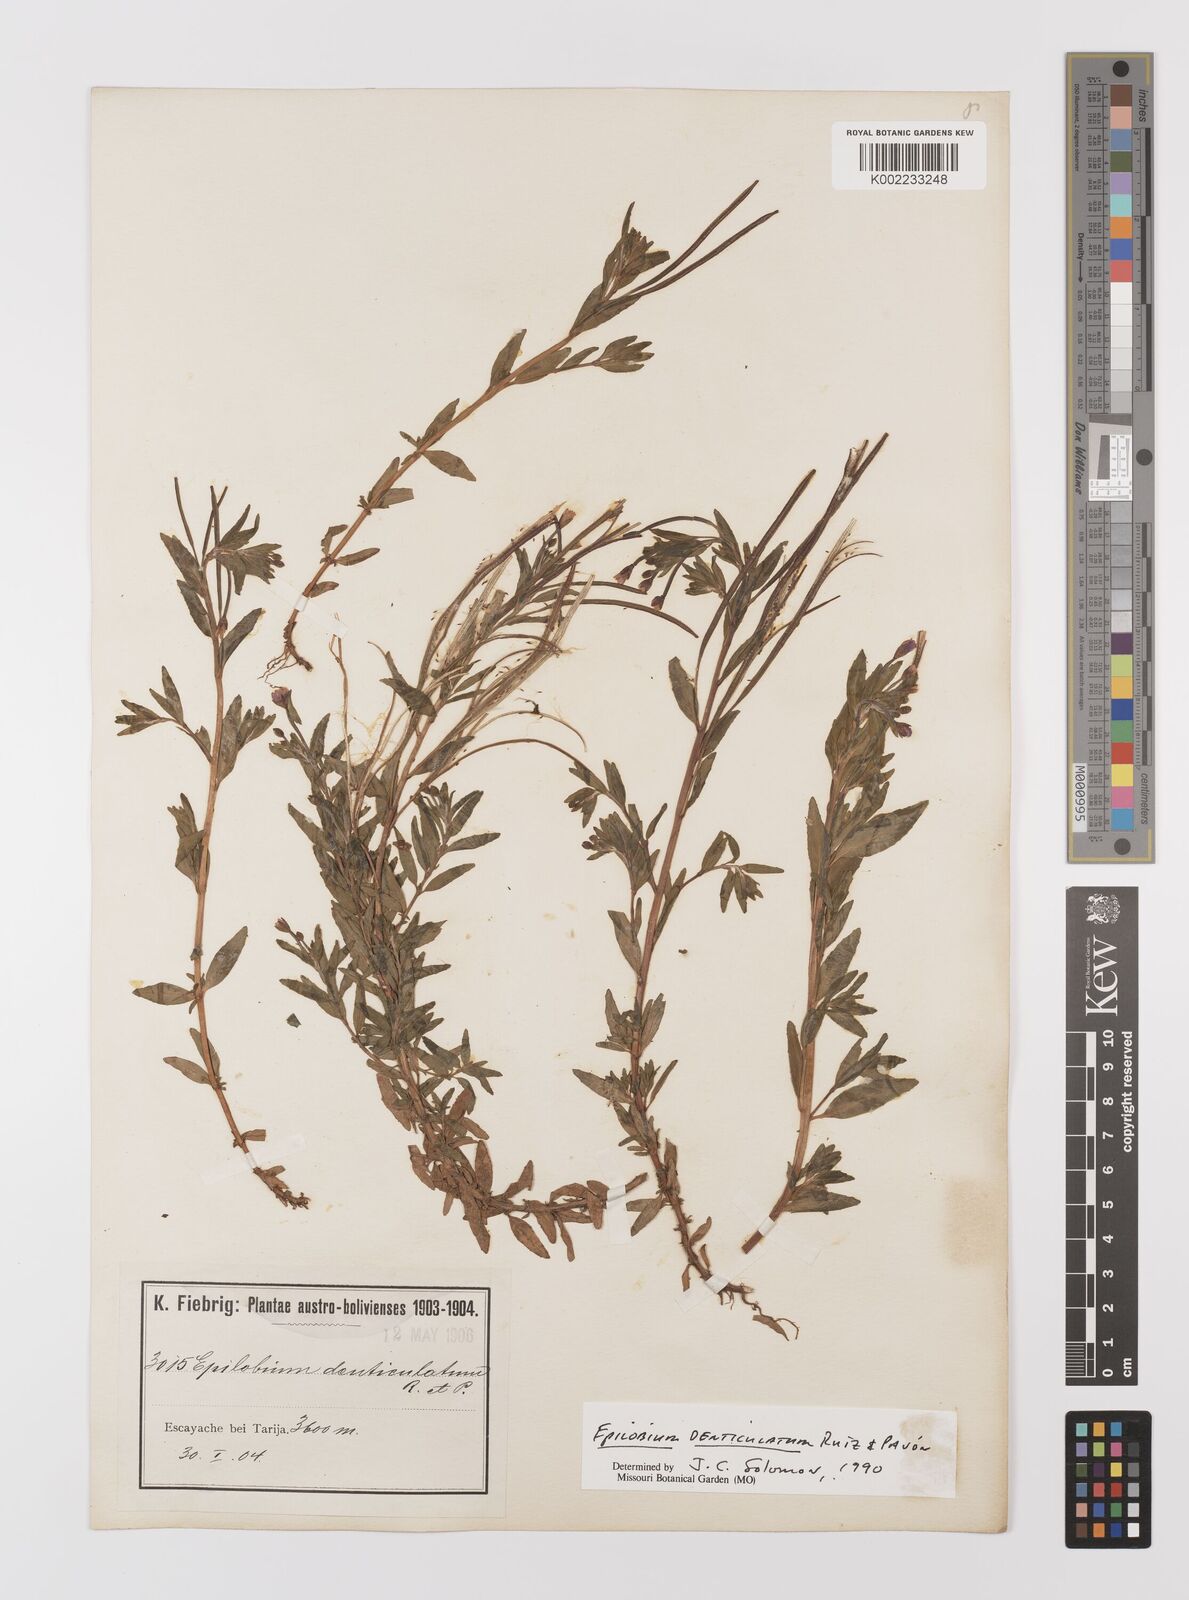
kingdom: Plantae
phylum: Tracheophyta
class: Magnoliopsida
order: Myrtales
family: Onagraceae
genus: Epilobium
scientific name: Epilobium denticulatum
